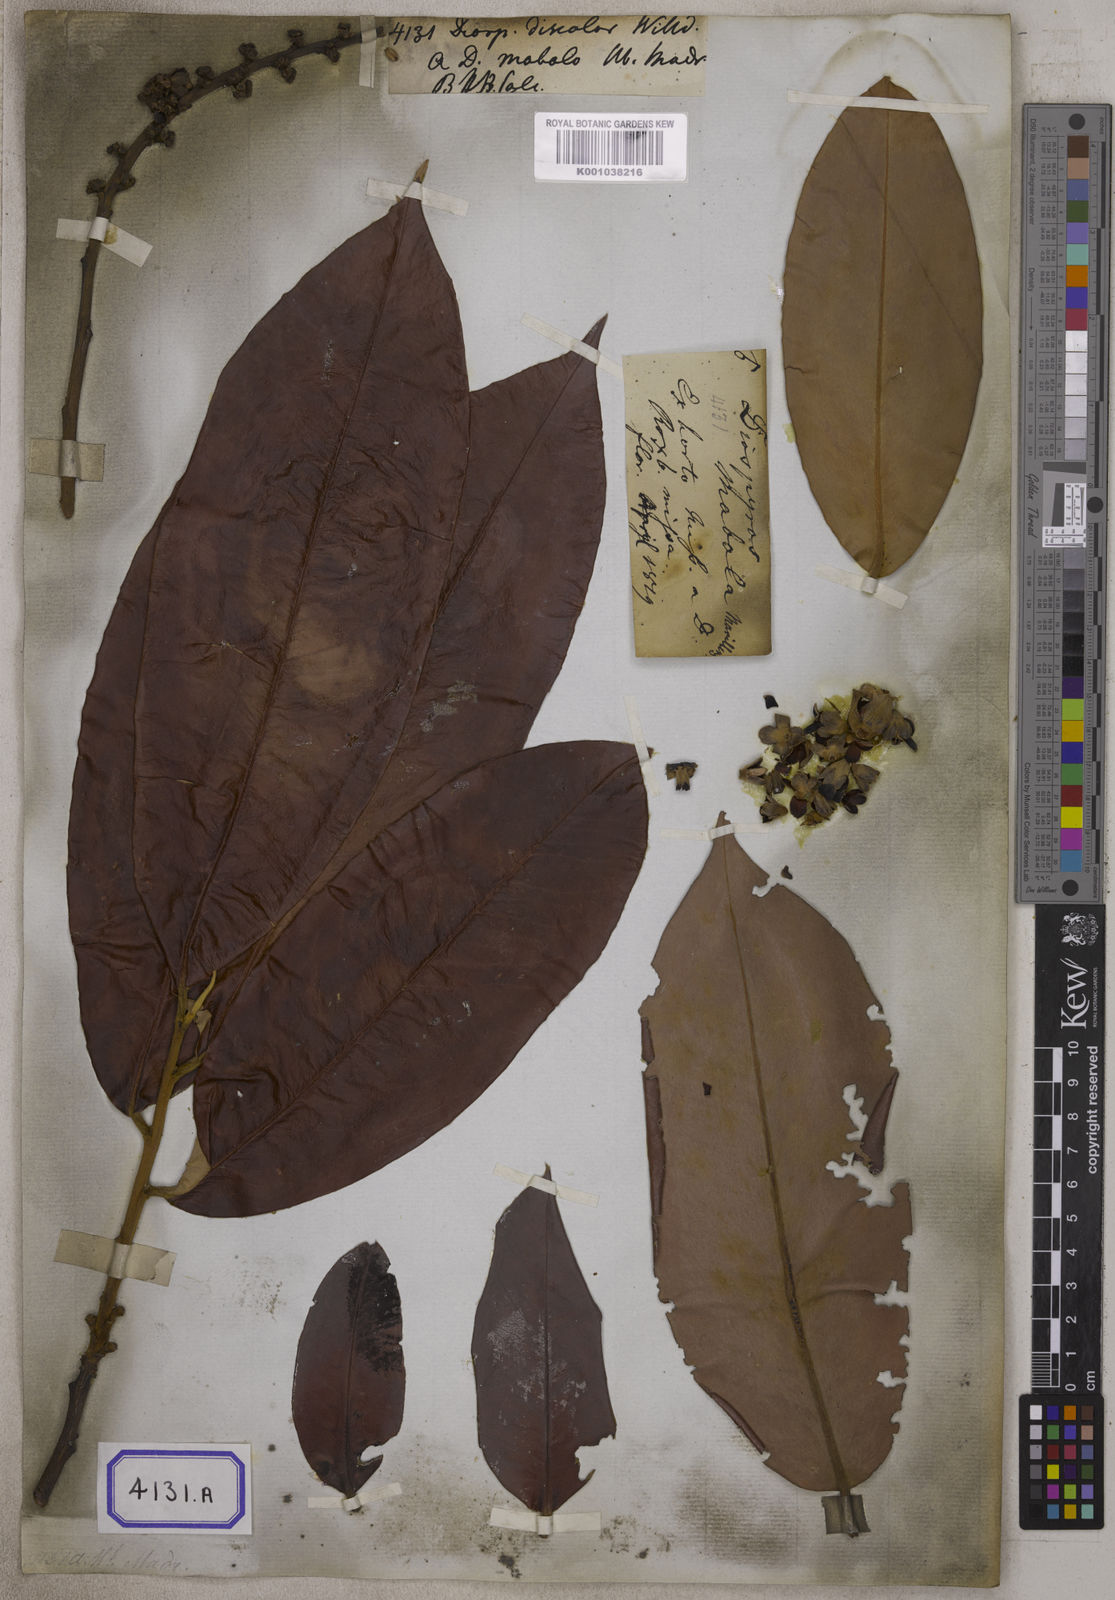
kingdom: Plantae
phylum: Tracheophyta
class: Magnoliopsida
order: Ericales
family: Ebenaceae
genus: Diospyros
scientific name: Diospyros blancoi
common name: Mabola-tree
